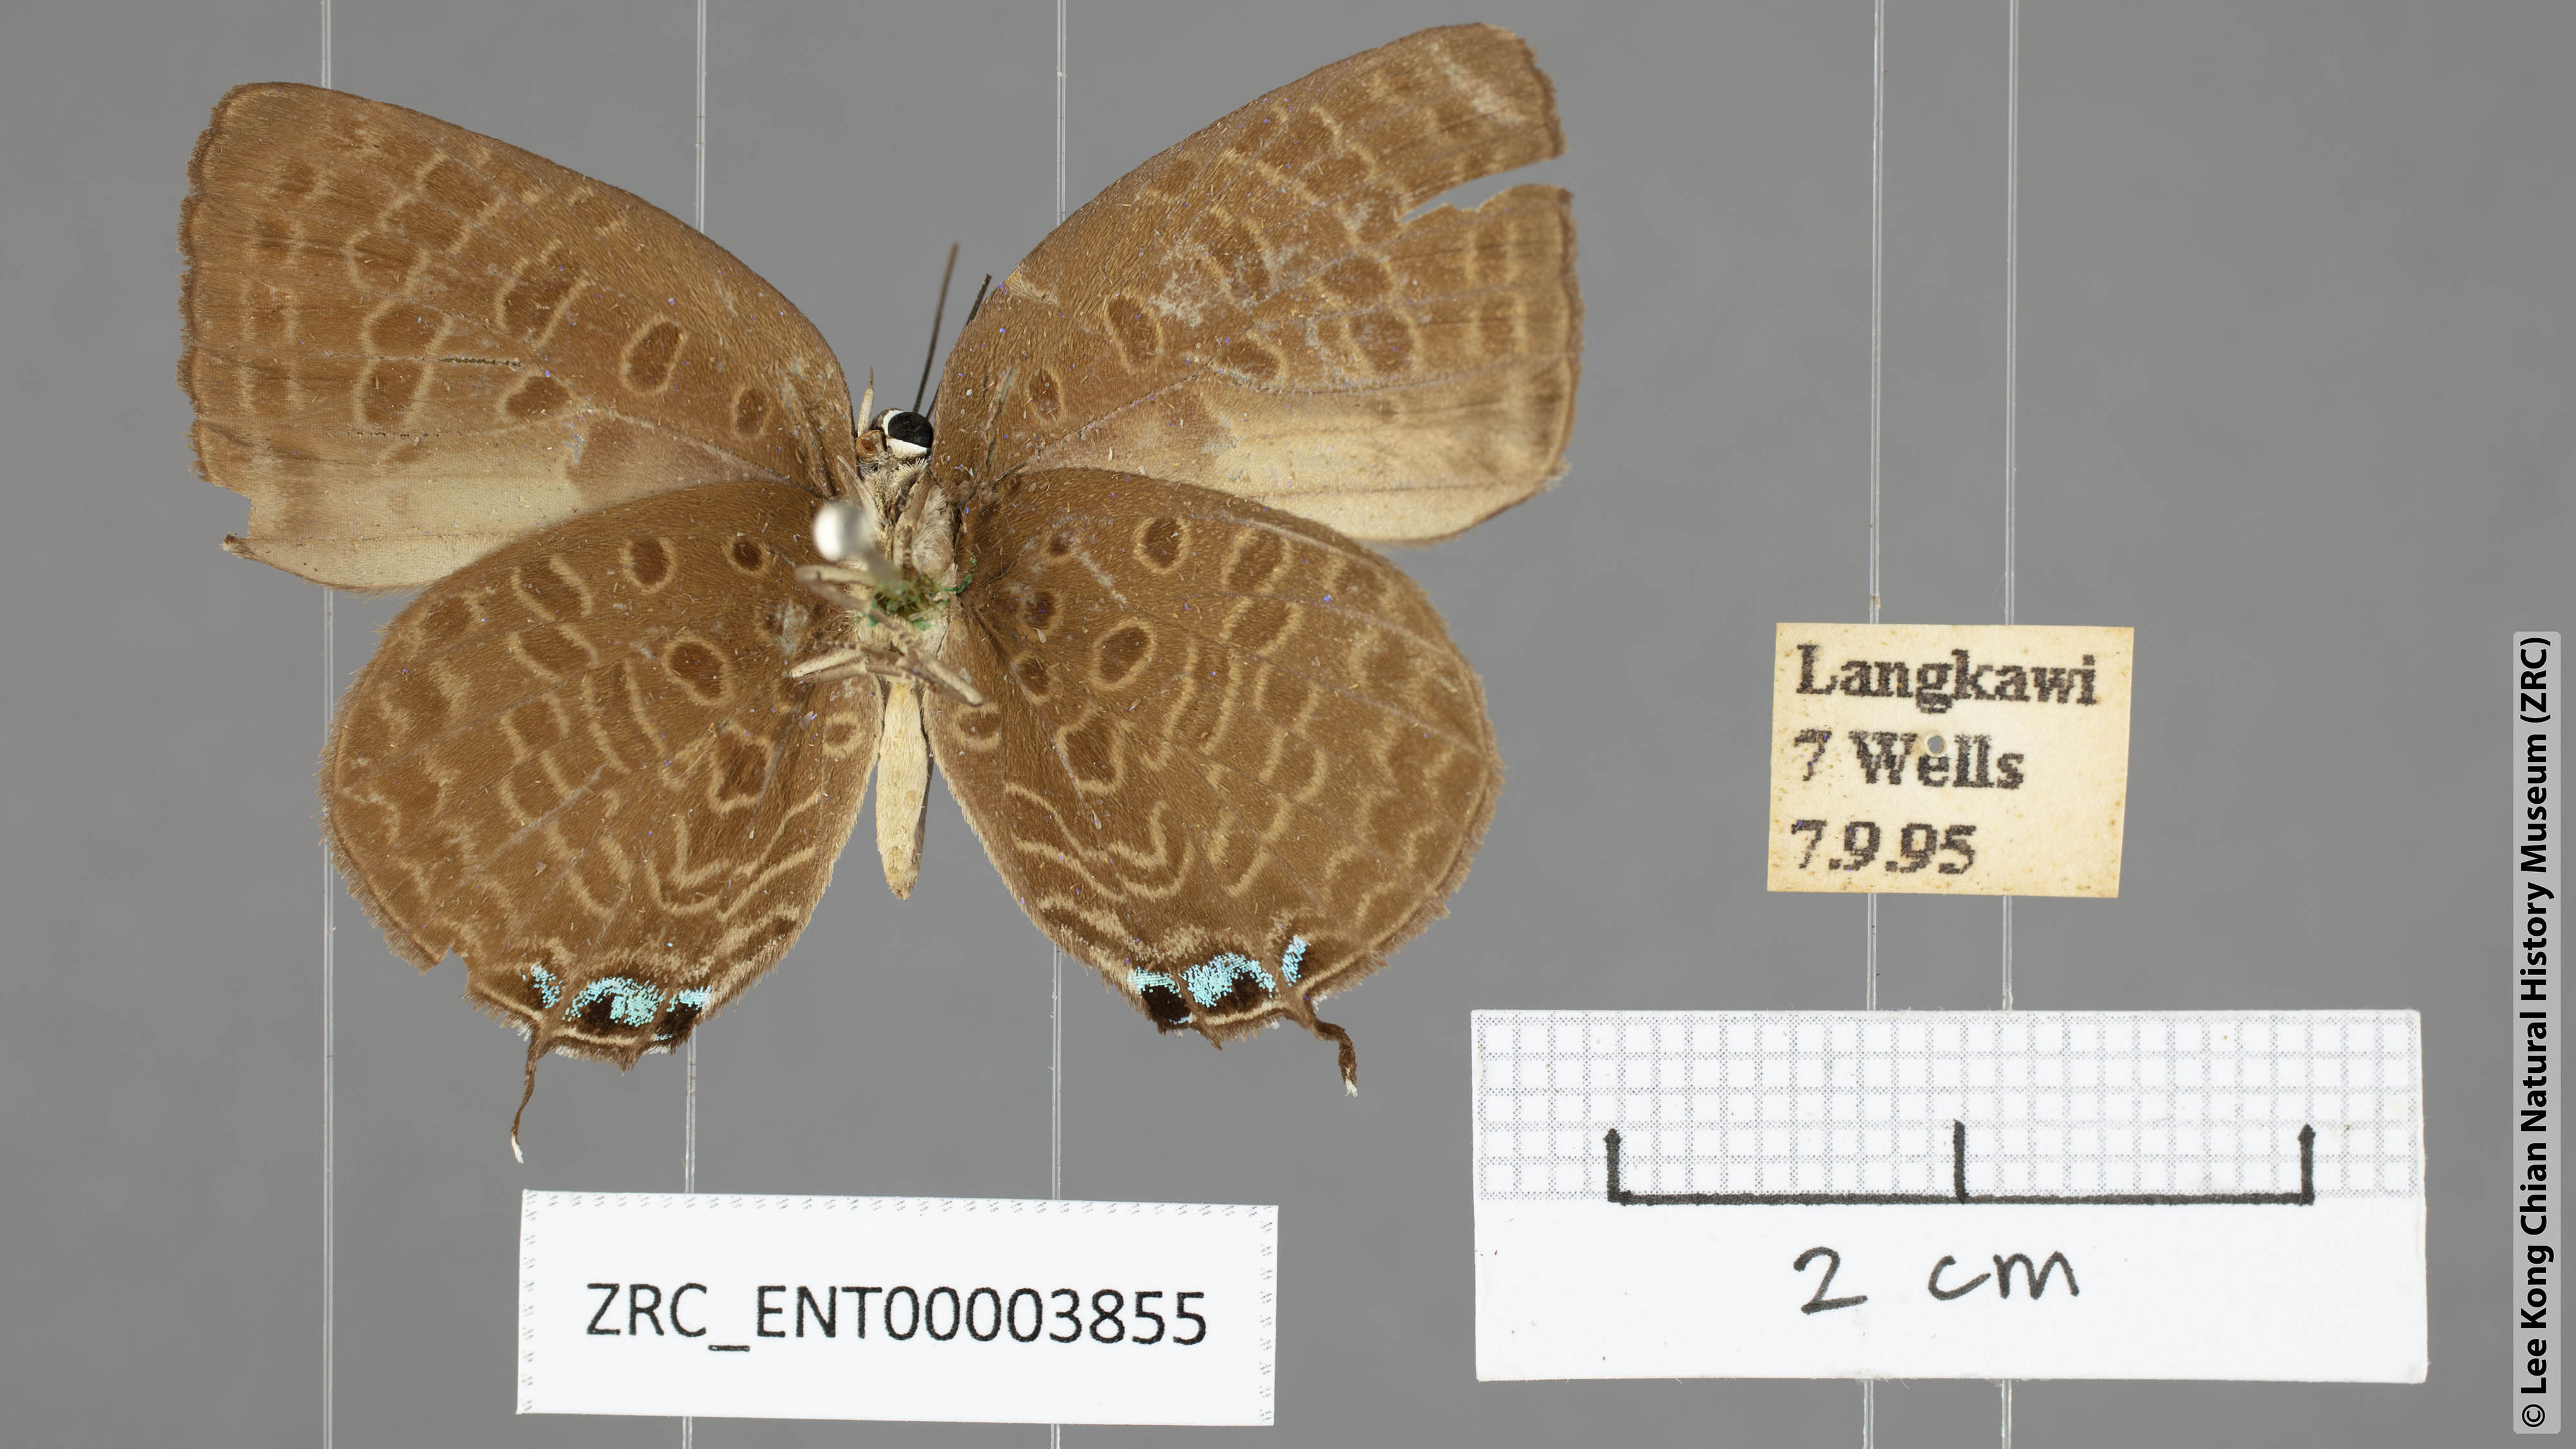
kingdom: Animalia
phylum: Arthropoda
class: Insecta
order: Lepidoptera
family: Lycaenidae
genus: Arhopala
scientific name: Arhopala ariana
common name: Pinkish-washed oakblue
